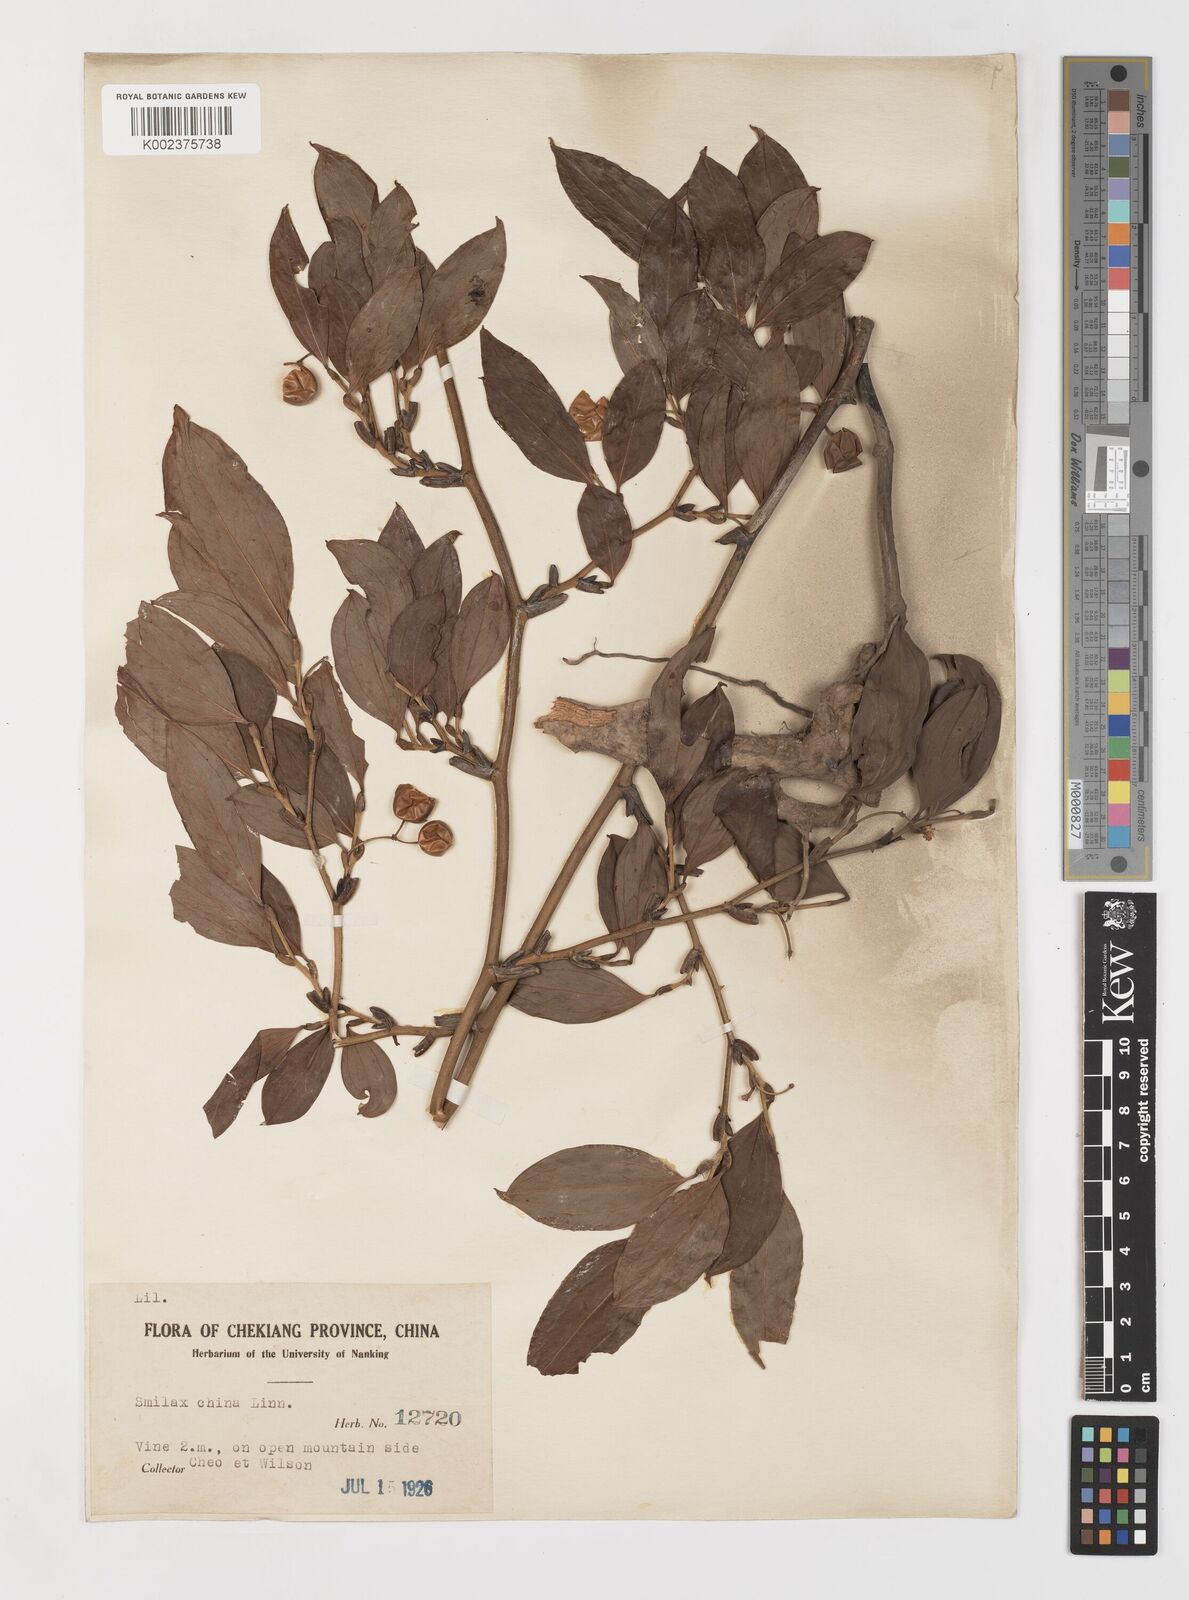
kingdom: Plantae
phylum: Tracheophyta
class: Liliopsida
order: Liliales
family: Smilacaceae
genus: Smilax
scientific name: Smilax china
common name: Chinaroot
